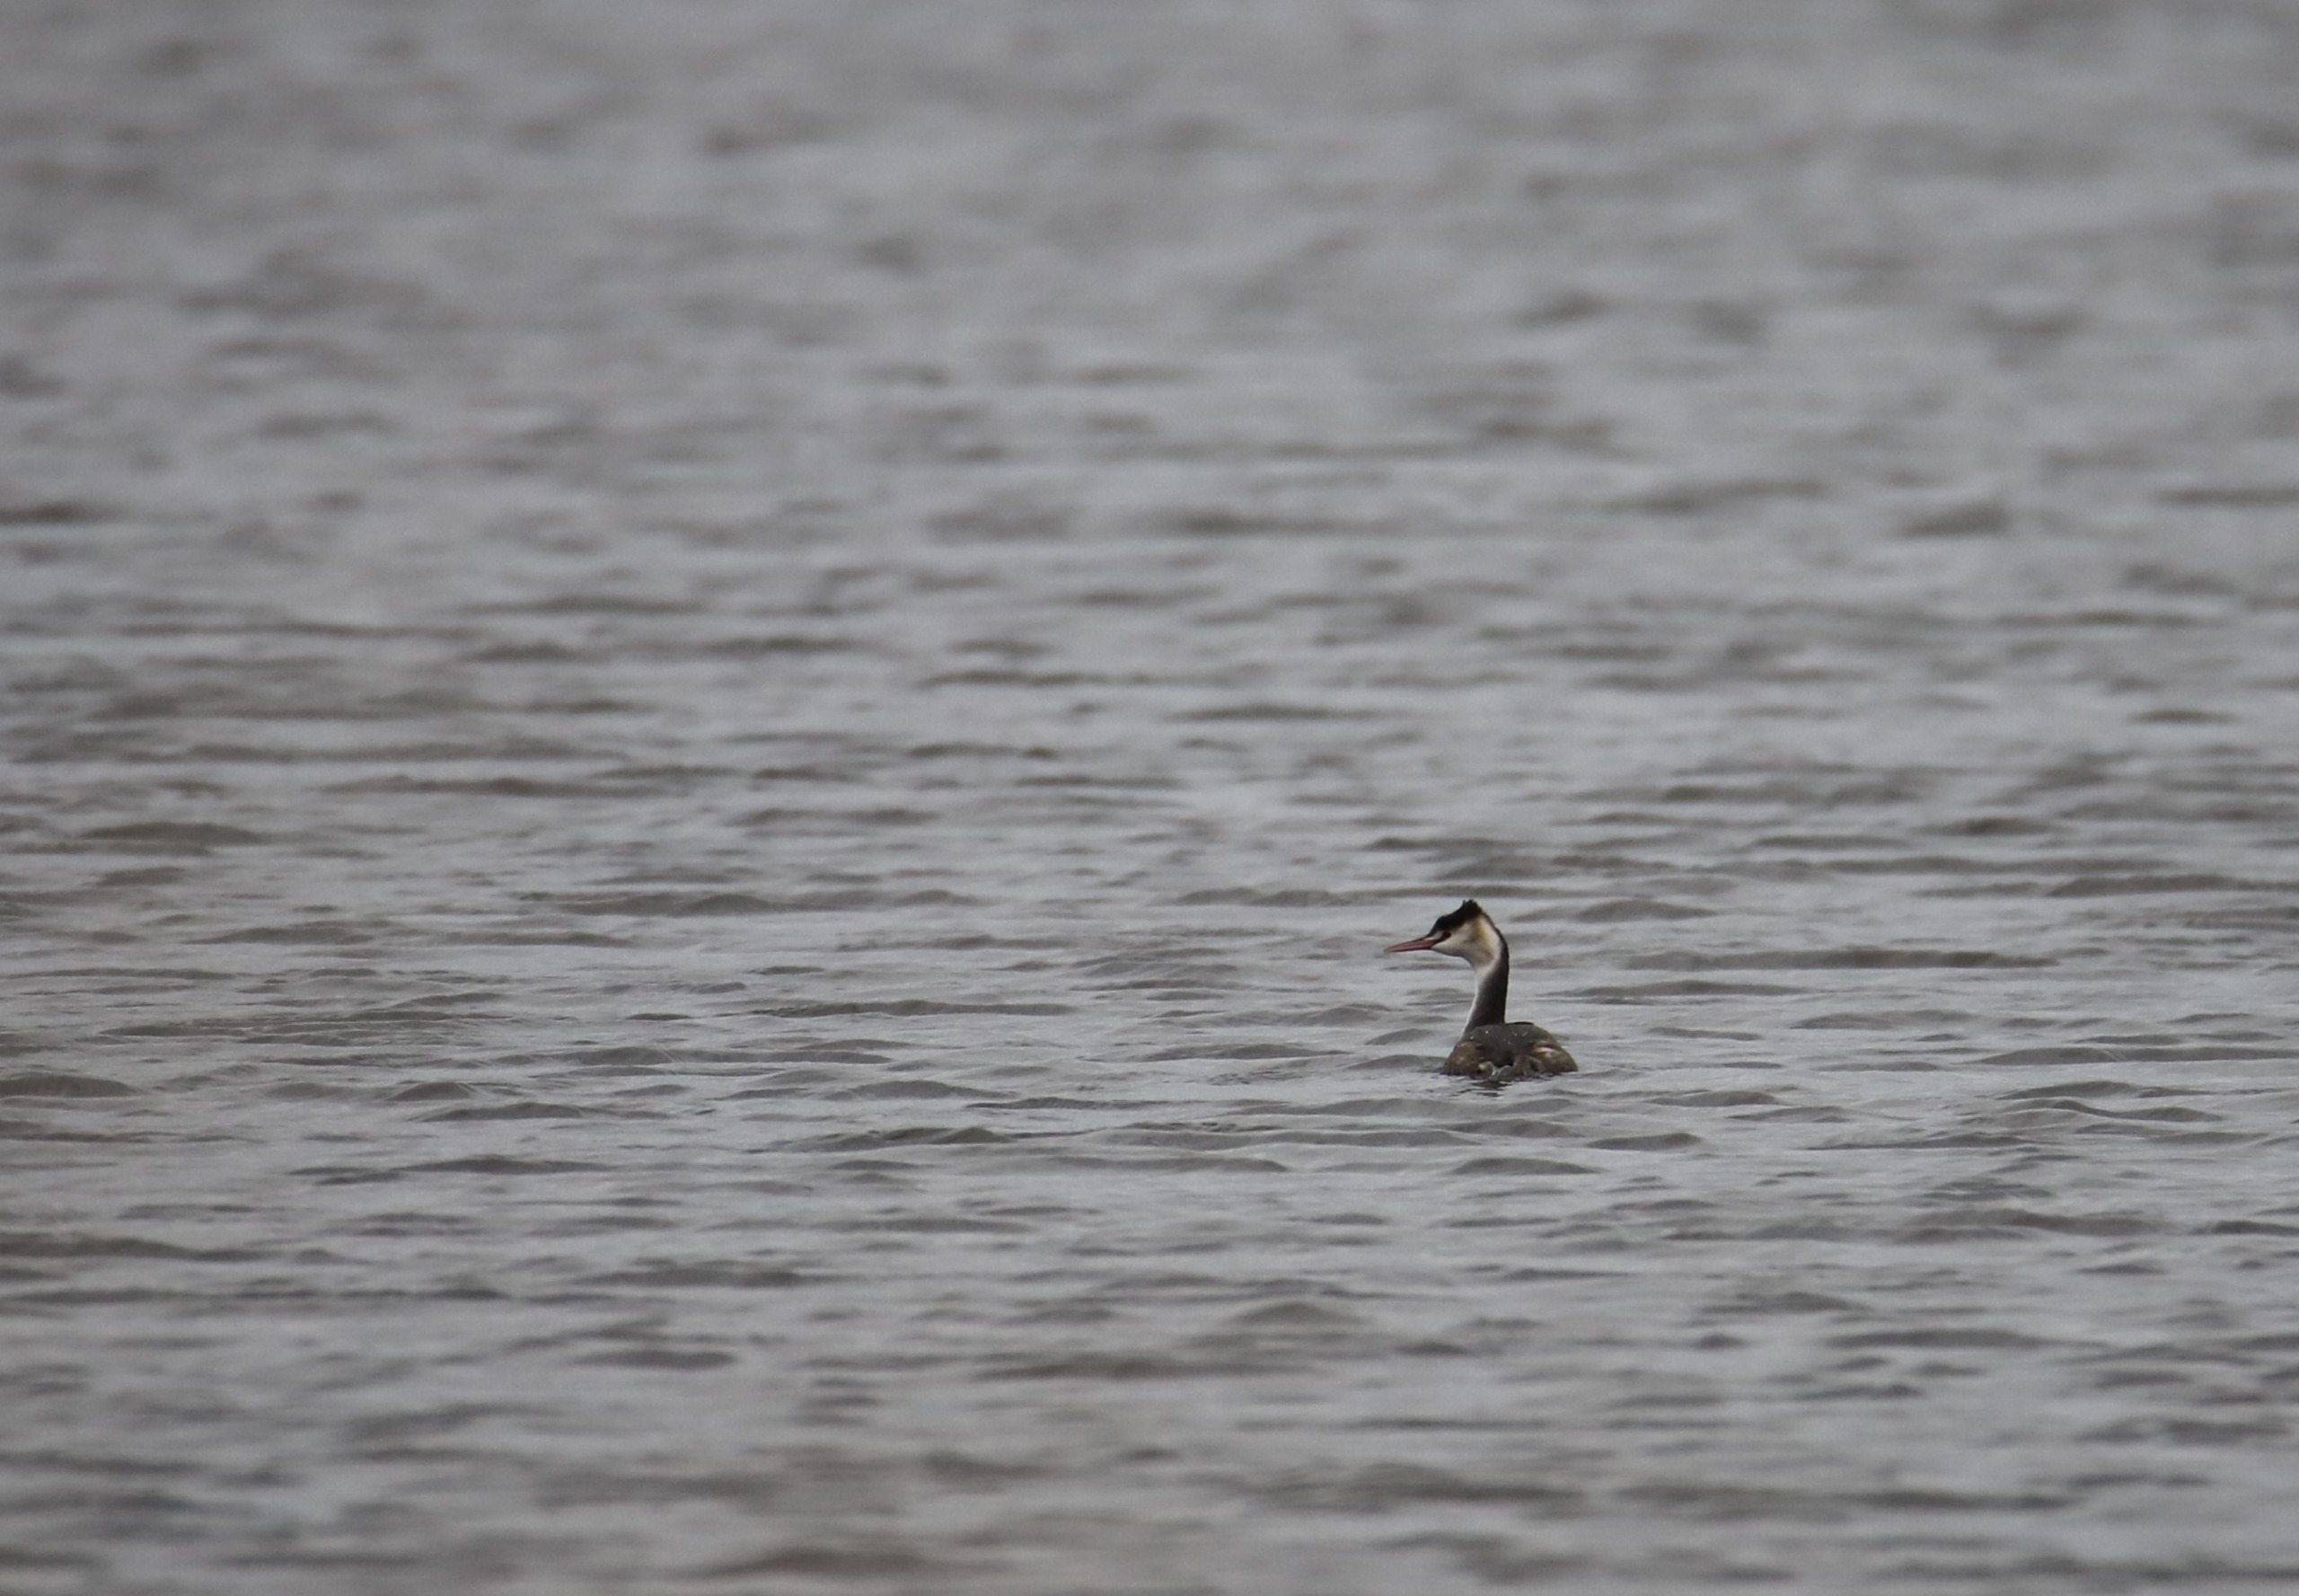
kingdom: Animalia
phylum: Chordata
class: Aves
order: Podicipediformes
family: Podicipedidae
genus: Podiceps
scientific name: Podiceps cristatus
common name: Toppet lappedykker
